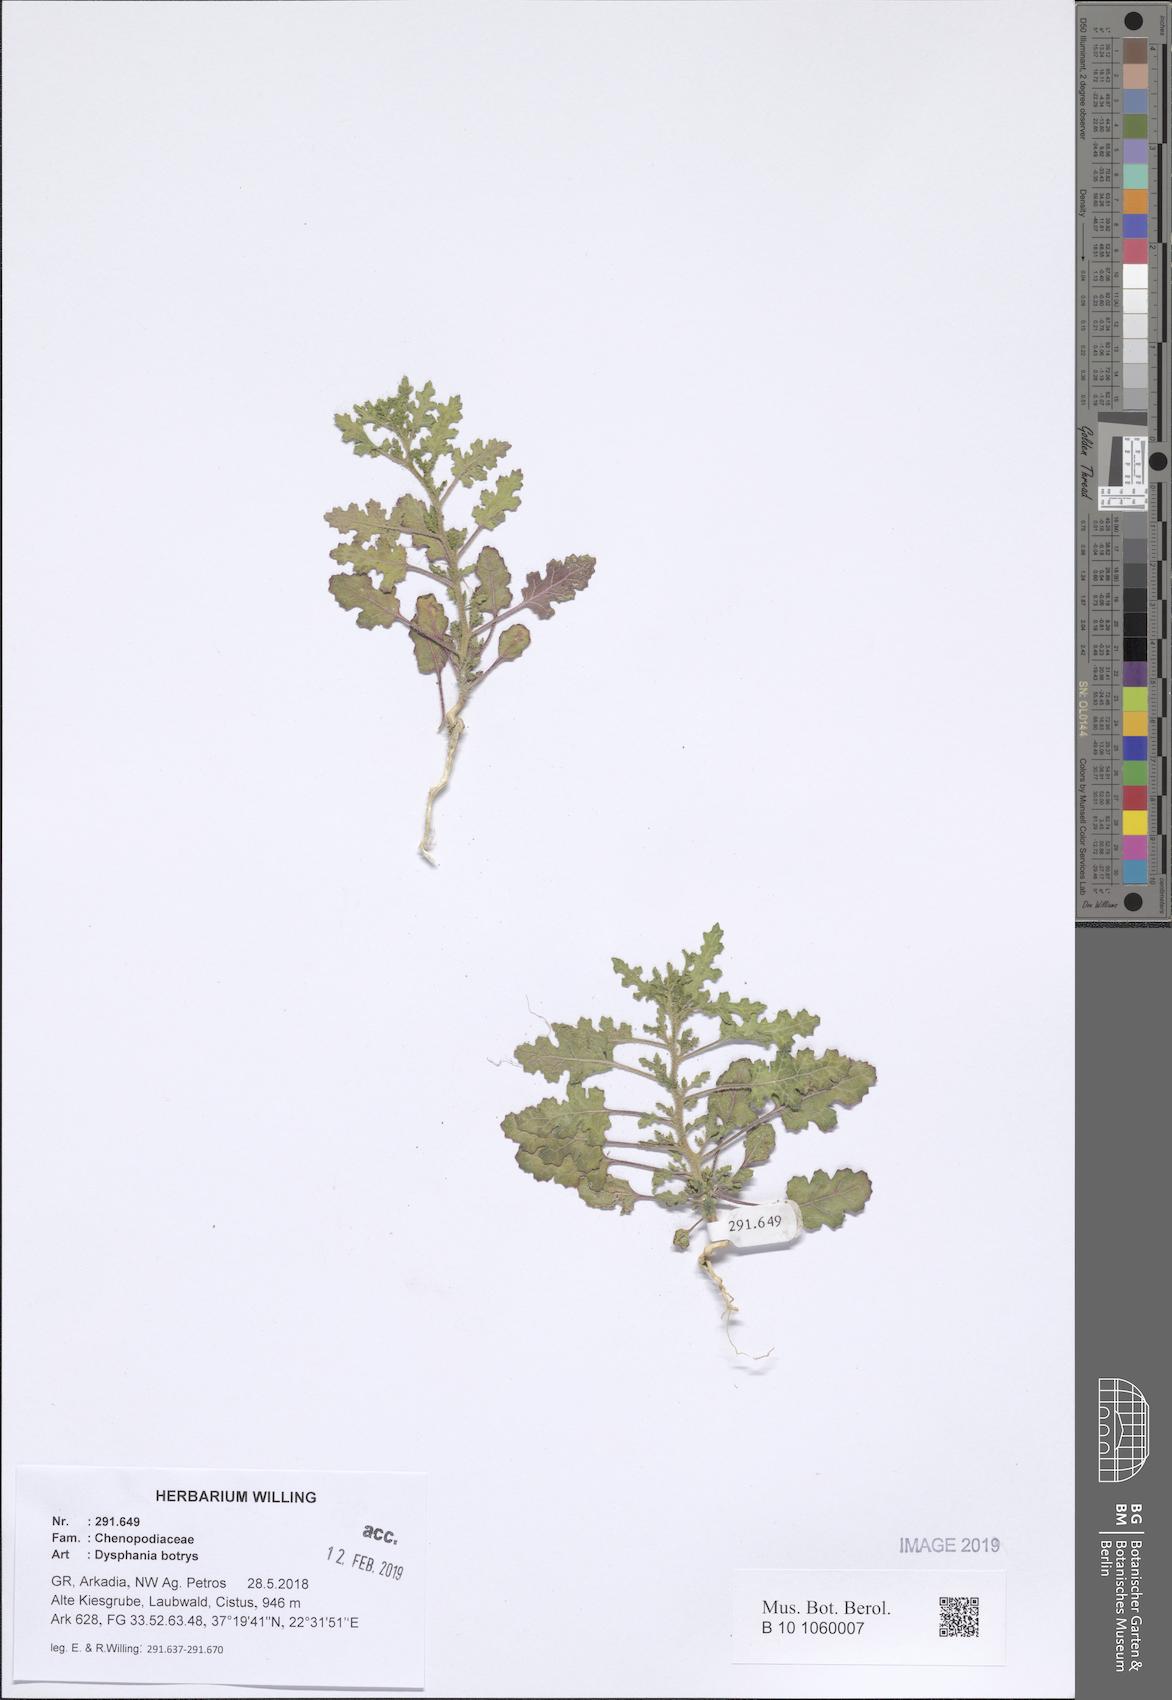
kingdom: Plantae
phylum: Tracheophyta
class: Magnoliopsida
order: Caryophyllales
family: Amaranthaceae
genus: Dysphania
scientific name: Dysphania botrys
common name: Feather-geranium
